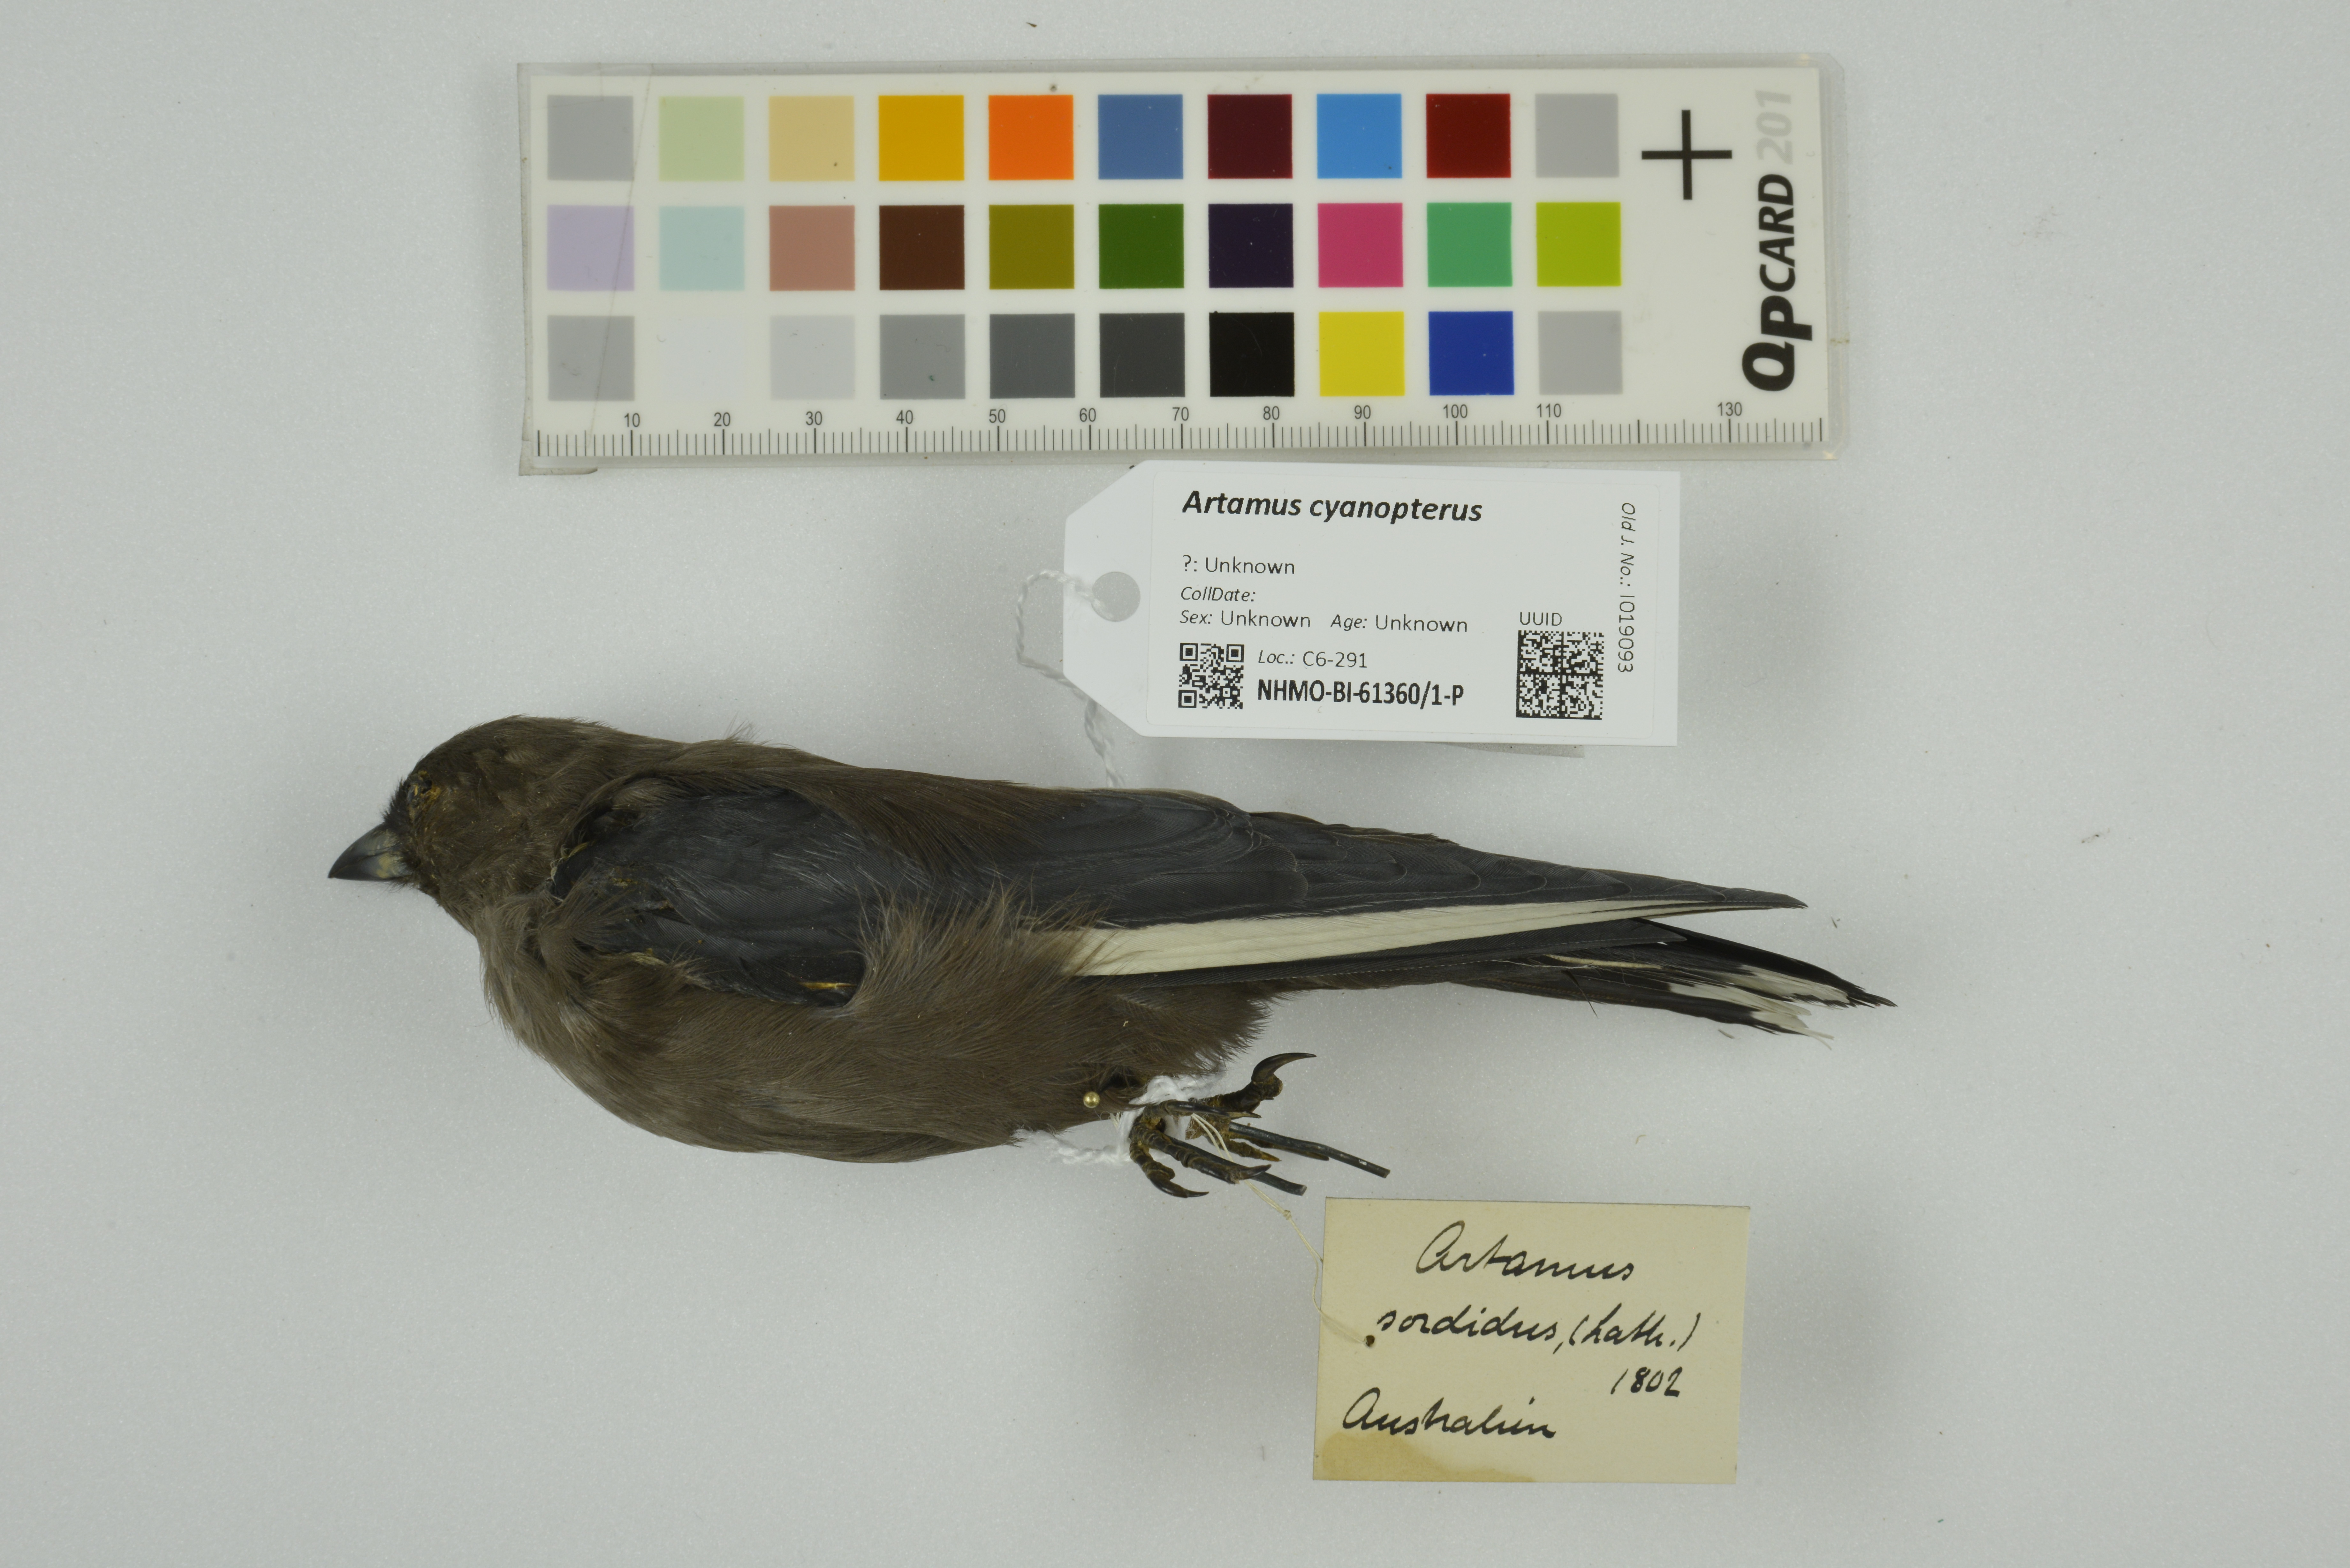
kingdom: Animalia
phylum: Chordata
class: Aves
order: Passeriformes
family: Artamidae
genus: Artamus
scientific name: Artamus cyanopterus
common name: Dusky woodswallow
